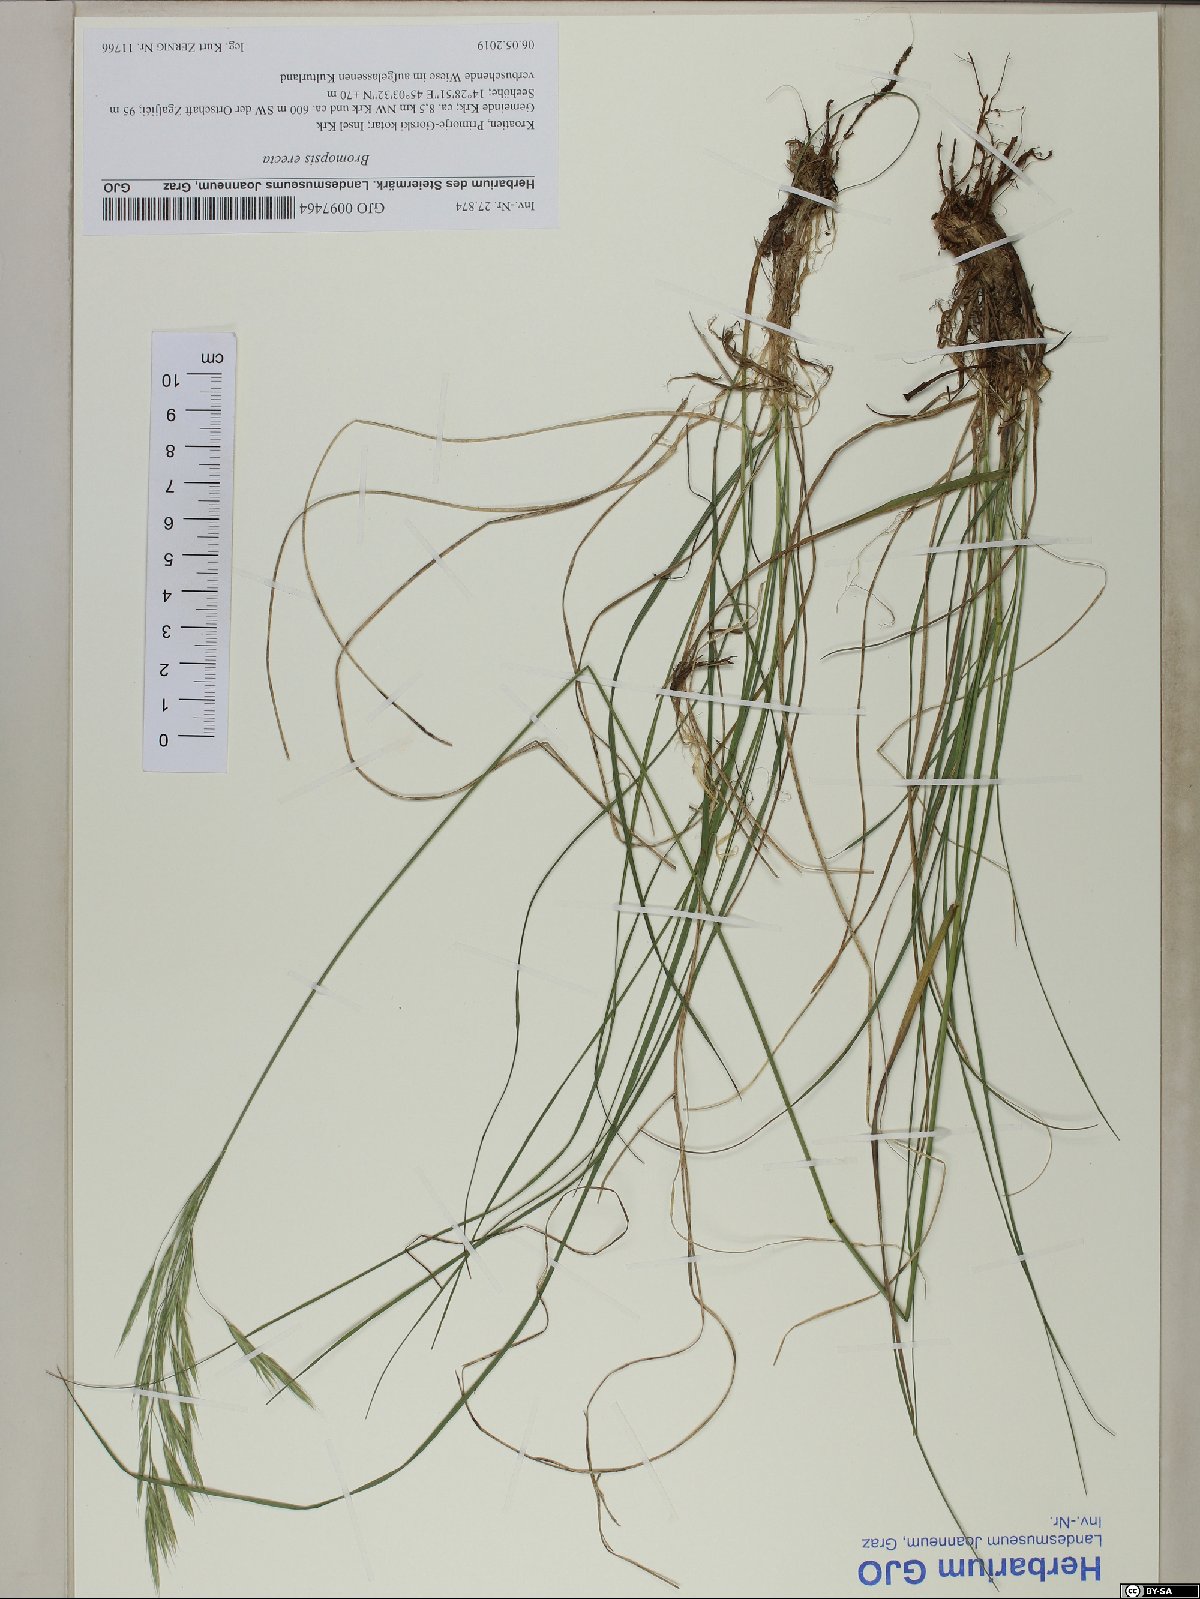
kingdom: Plantae
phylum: Tracheophyta
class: Liliopsida
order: Poales
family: Poaceae
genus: Bromus
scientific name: Bromus erectus
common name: Erect brome
